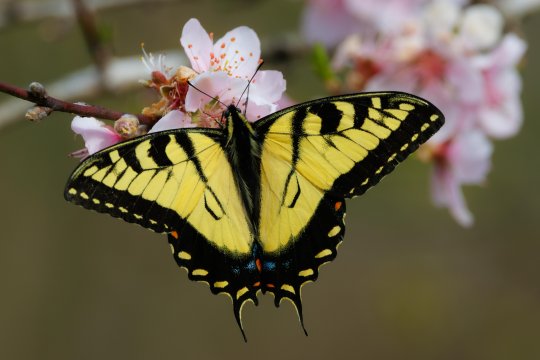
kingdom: Animalia
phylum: Arthropoda
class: Insecta
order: Lepidoptera
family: Papilionidae
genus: Pterourus
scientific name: Pterourus glaucus
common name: Eastern Tiger Swallowtail
